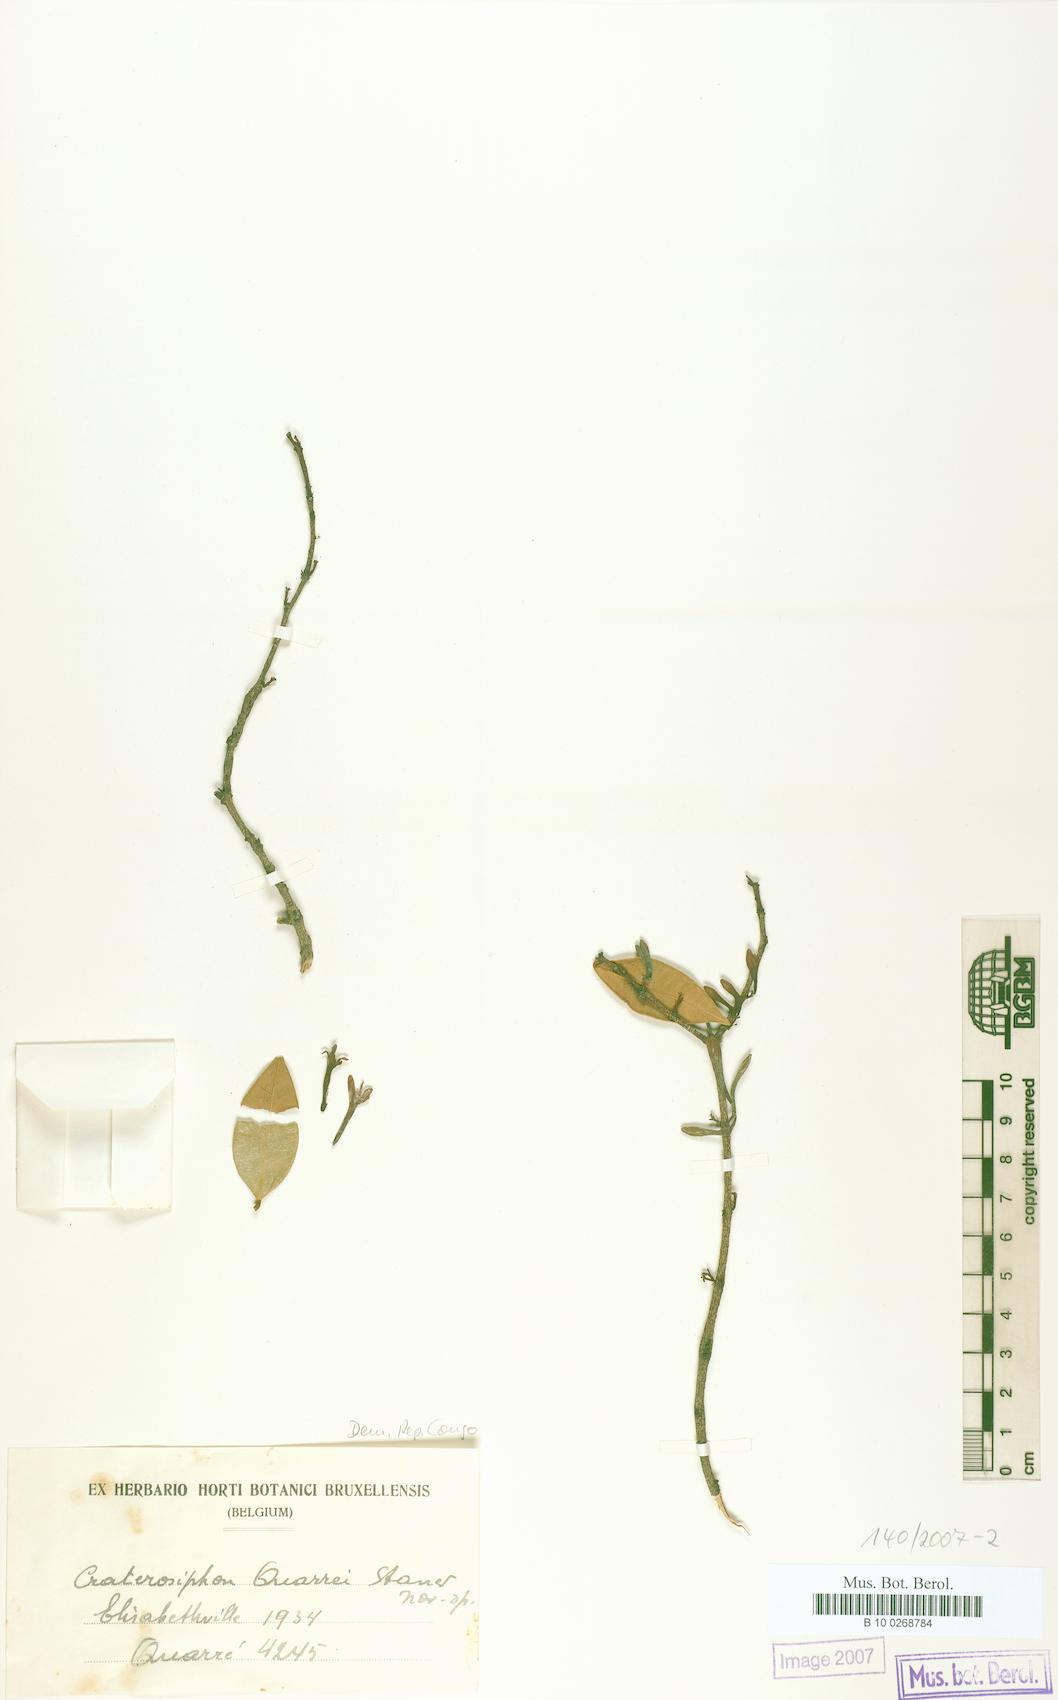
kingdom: Plantae
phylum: Tracheophyta
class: Magnoliopsida
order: Malvales
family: Thymelaeaceae
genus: Craterosiphon
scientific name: Craterosiphon quarrei
